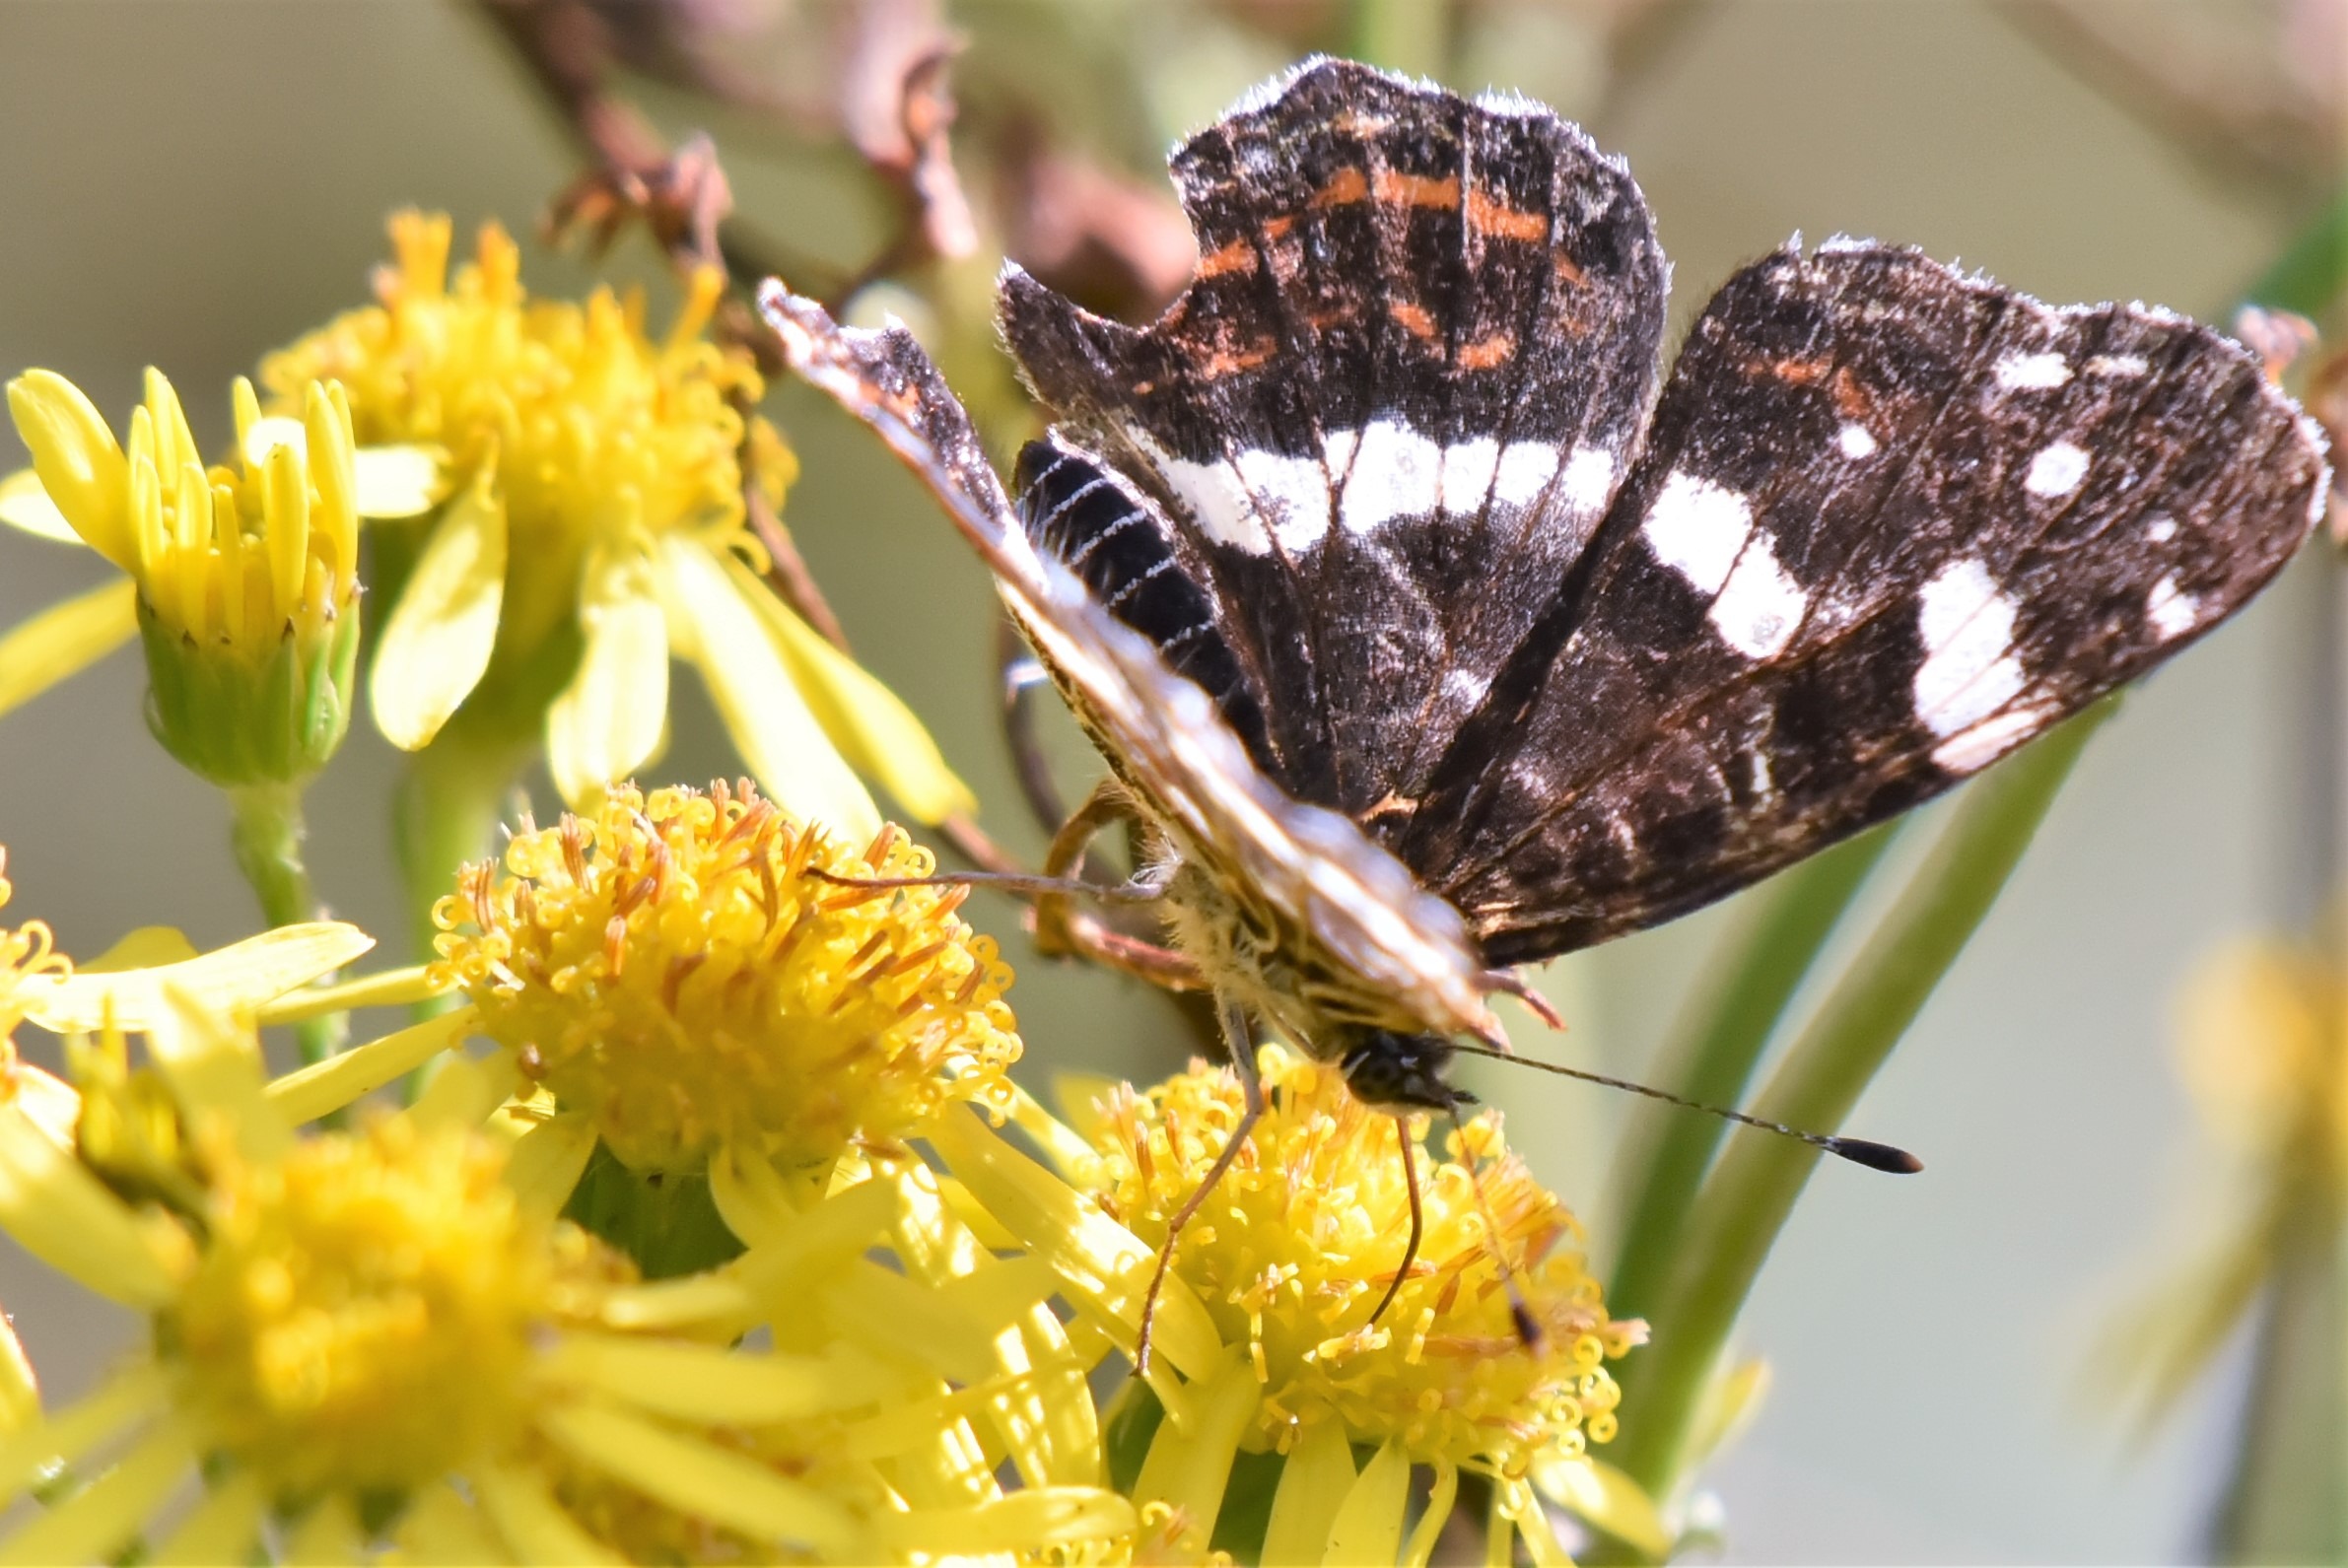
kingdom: Animalia
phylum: Arthropoda
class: Insecta
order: Lepidoptera
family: Nymphalidae
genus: Araschnia
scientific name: Araschnia levana
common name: Nældesommerfugl
